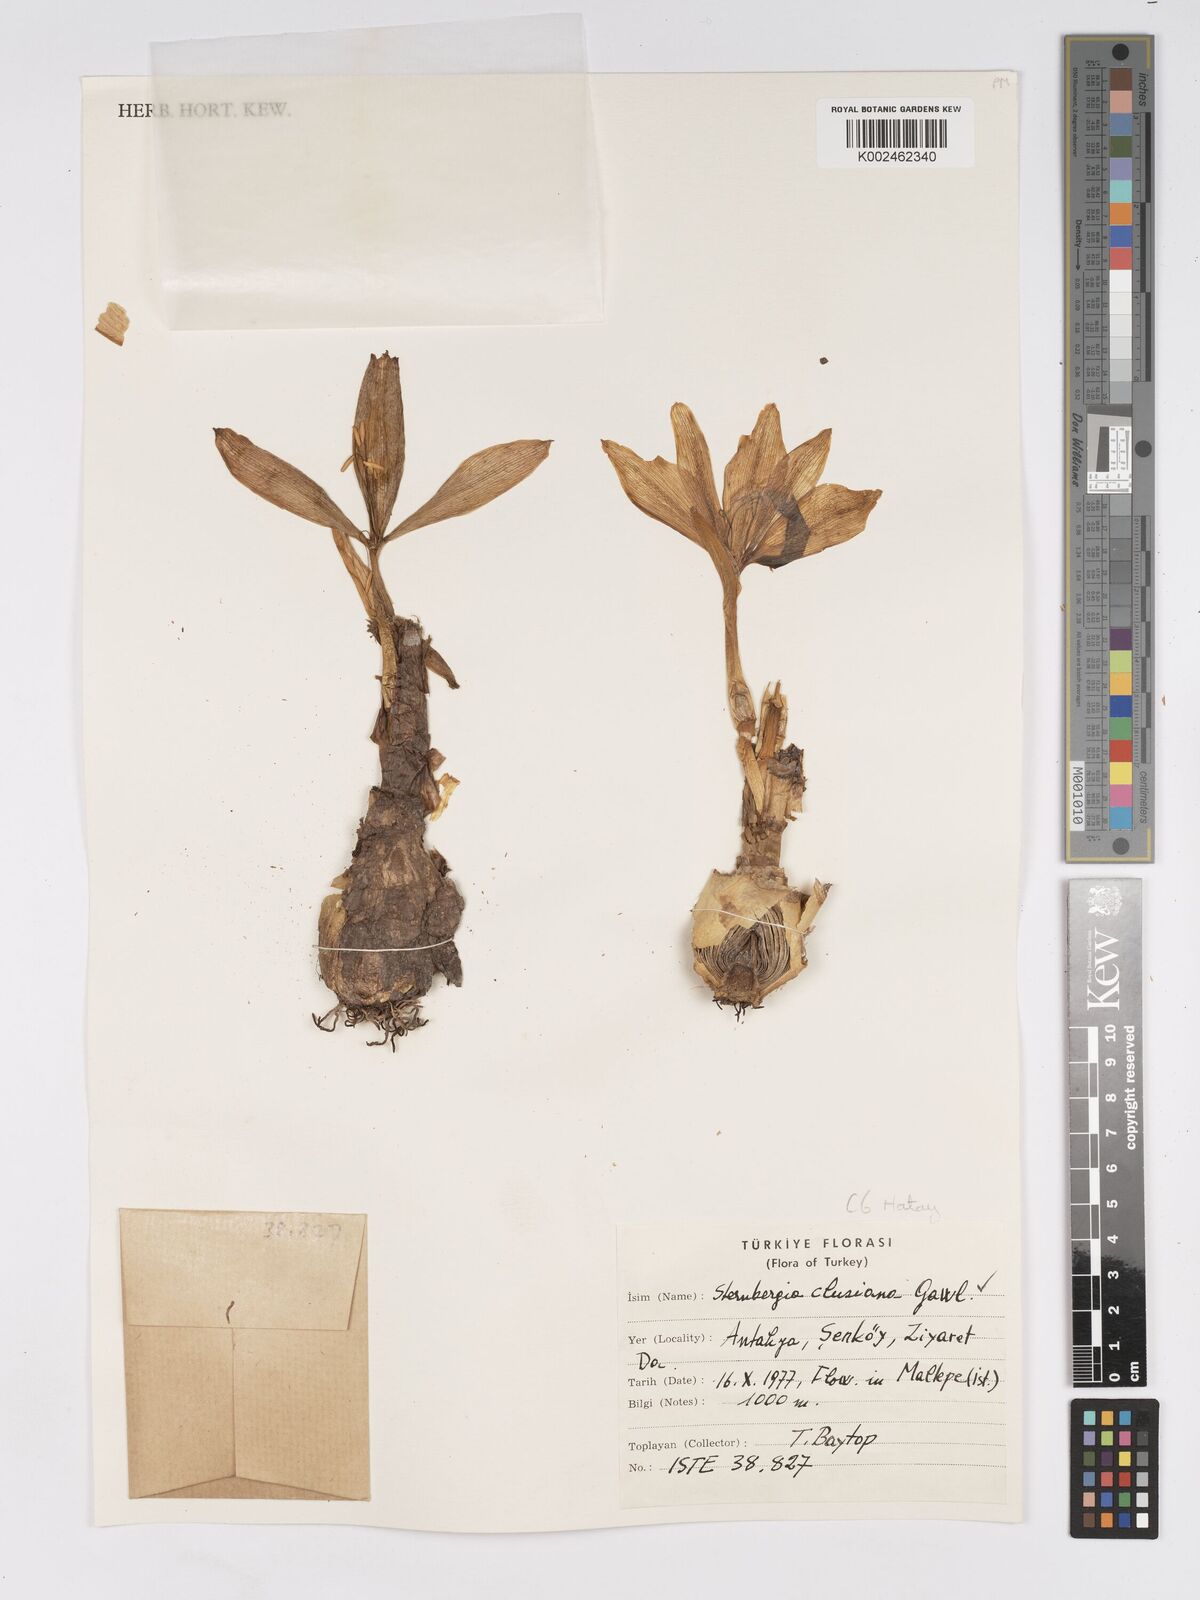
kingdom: Plantae
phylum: Tracheophyta
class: Liliopsida
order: Asparagales
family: Amaryllidaceae
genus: Sternbergia
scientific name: Sternbergia clusiana
